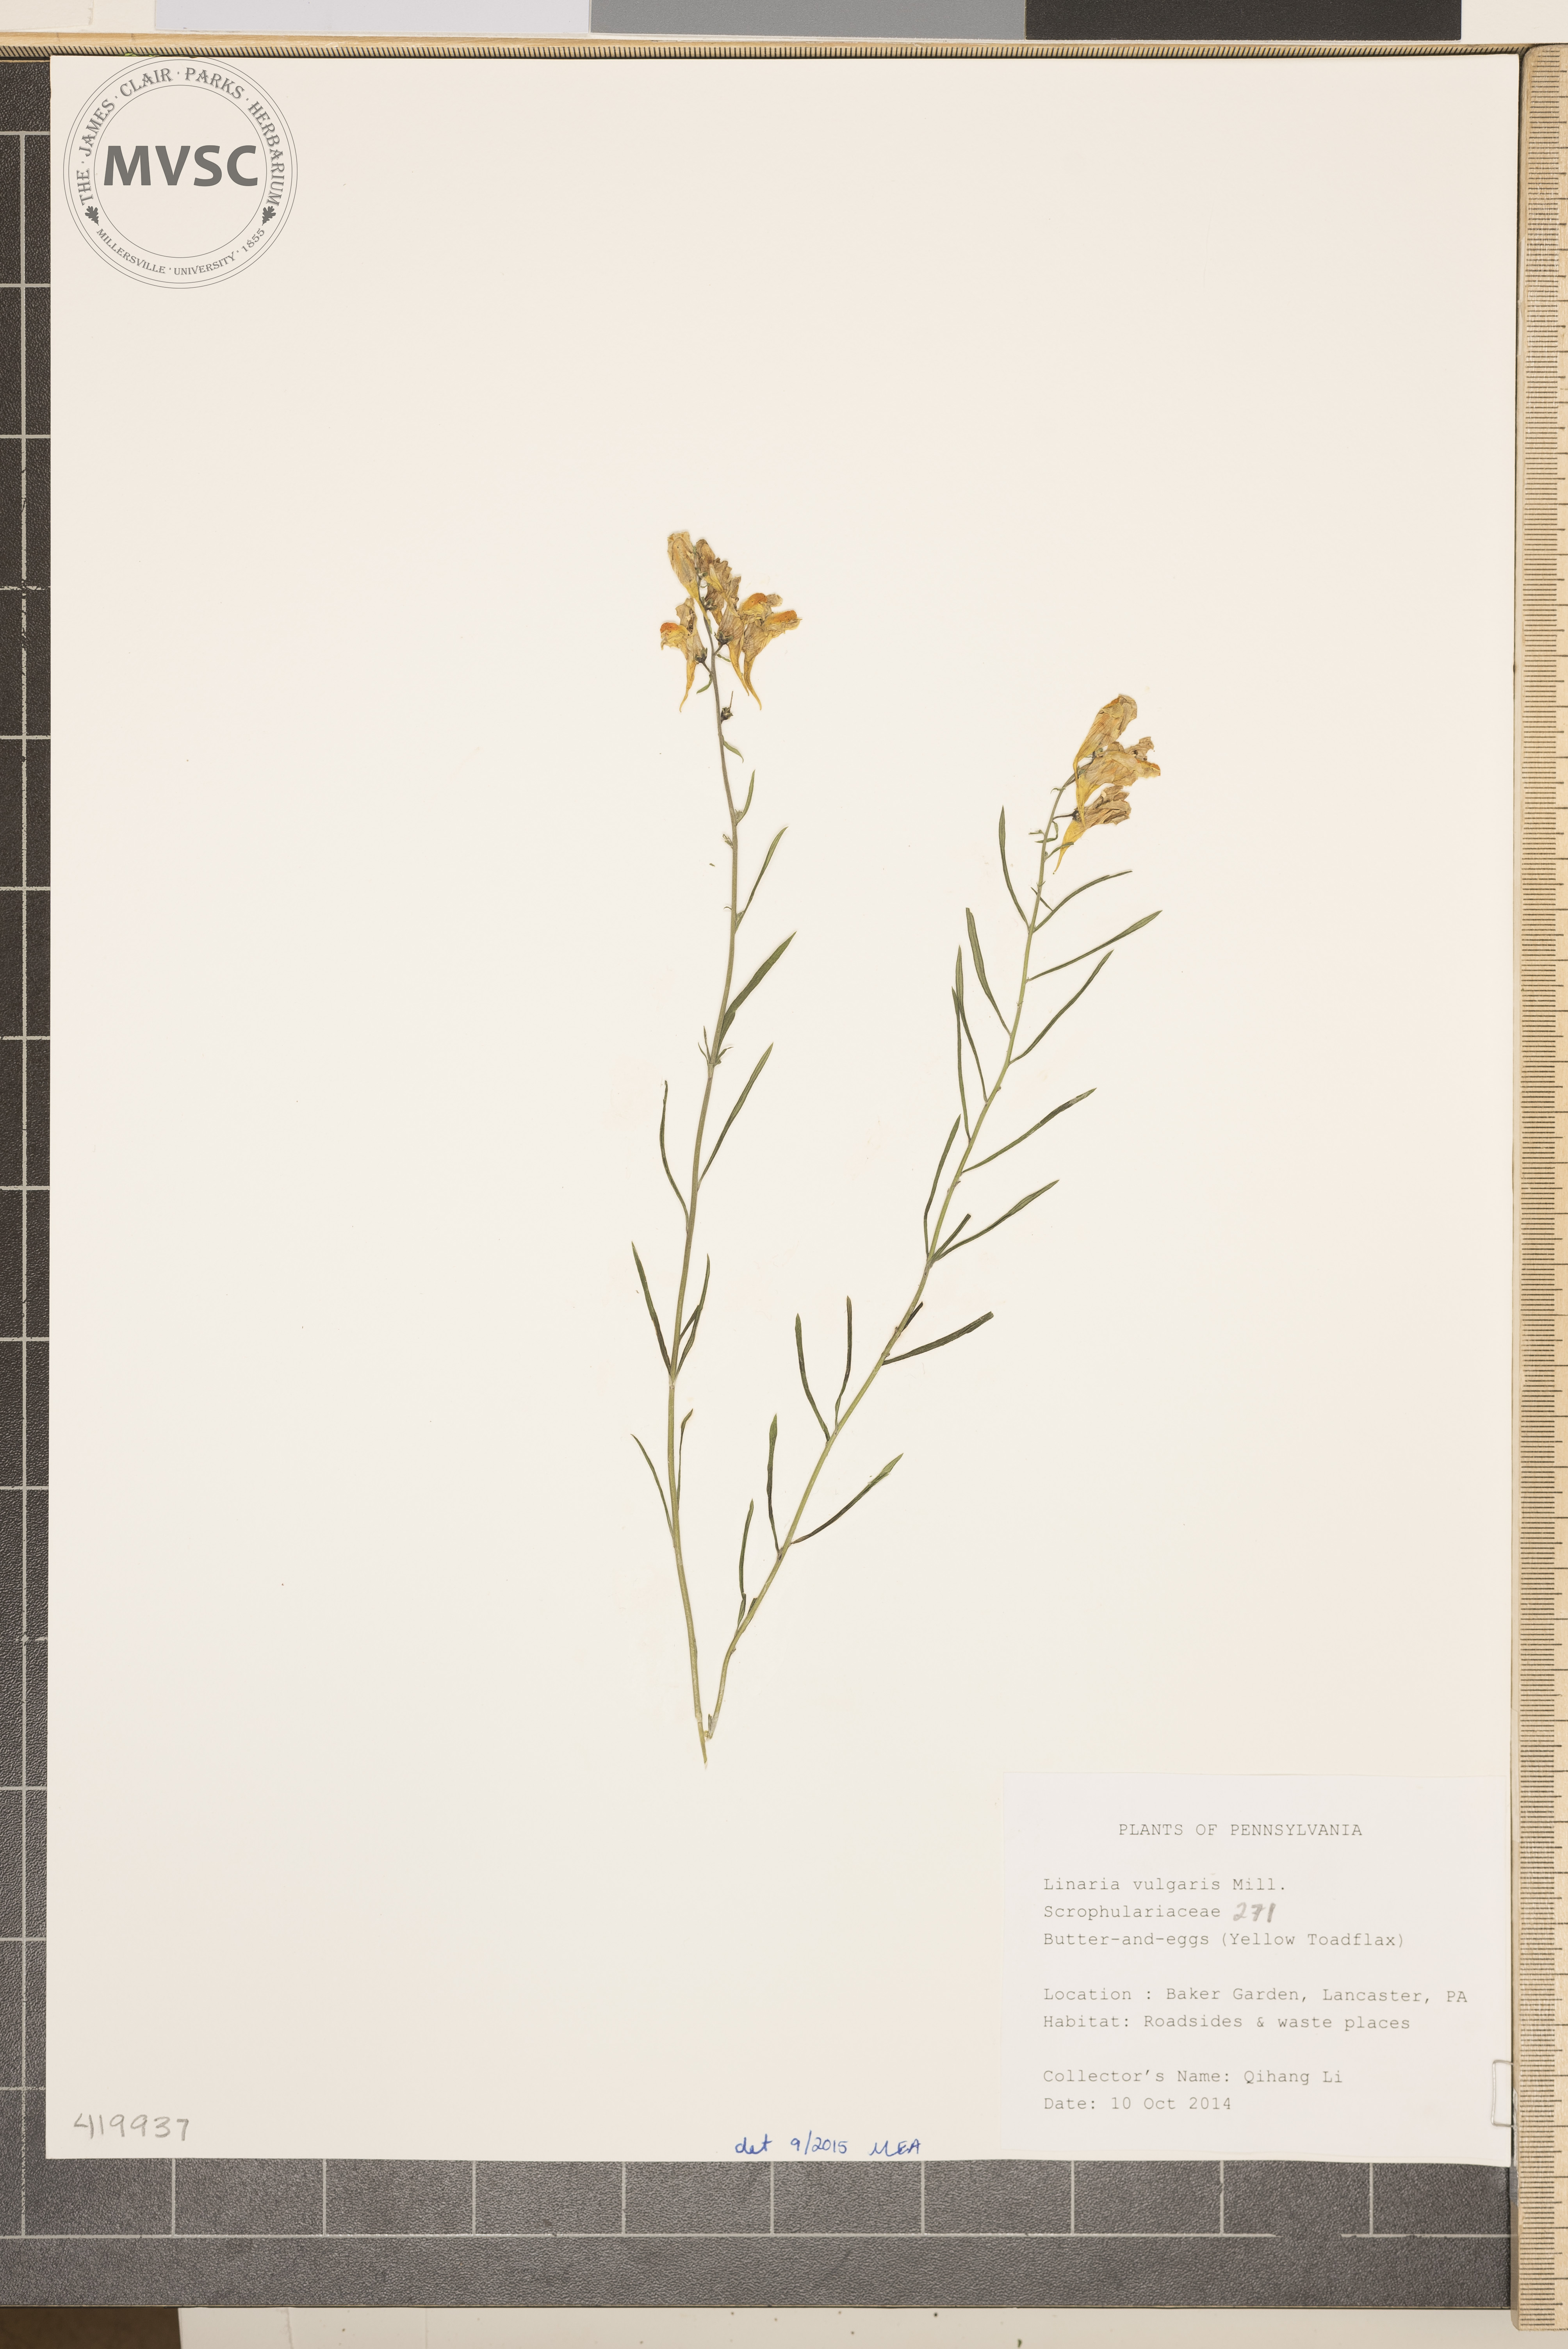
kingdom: Plantae
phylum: Tracheophyta
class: Magnoliopsida
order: Lamiales
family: Plantaginaceae
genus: Linaria
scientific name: Linaria vulgaris
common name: Yellow Toadflax
